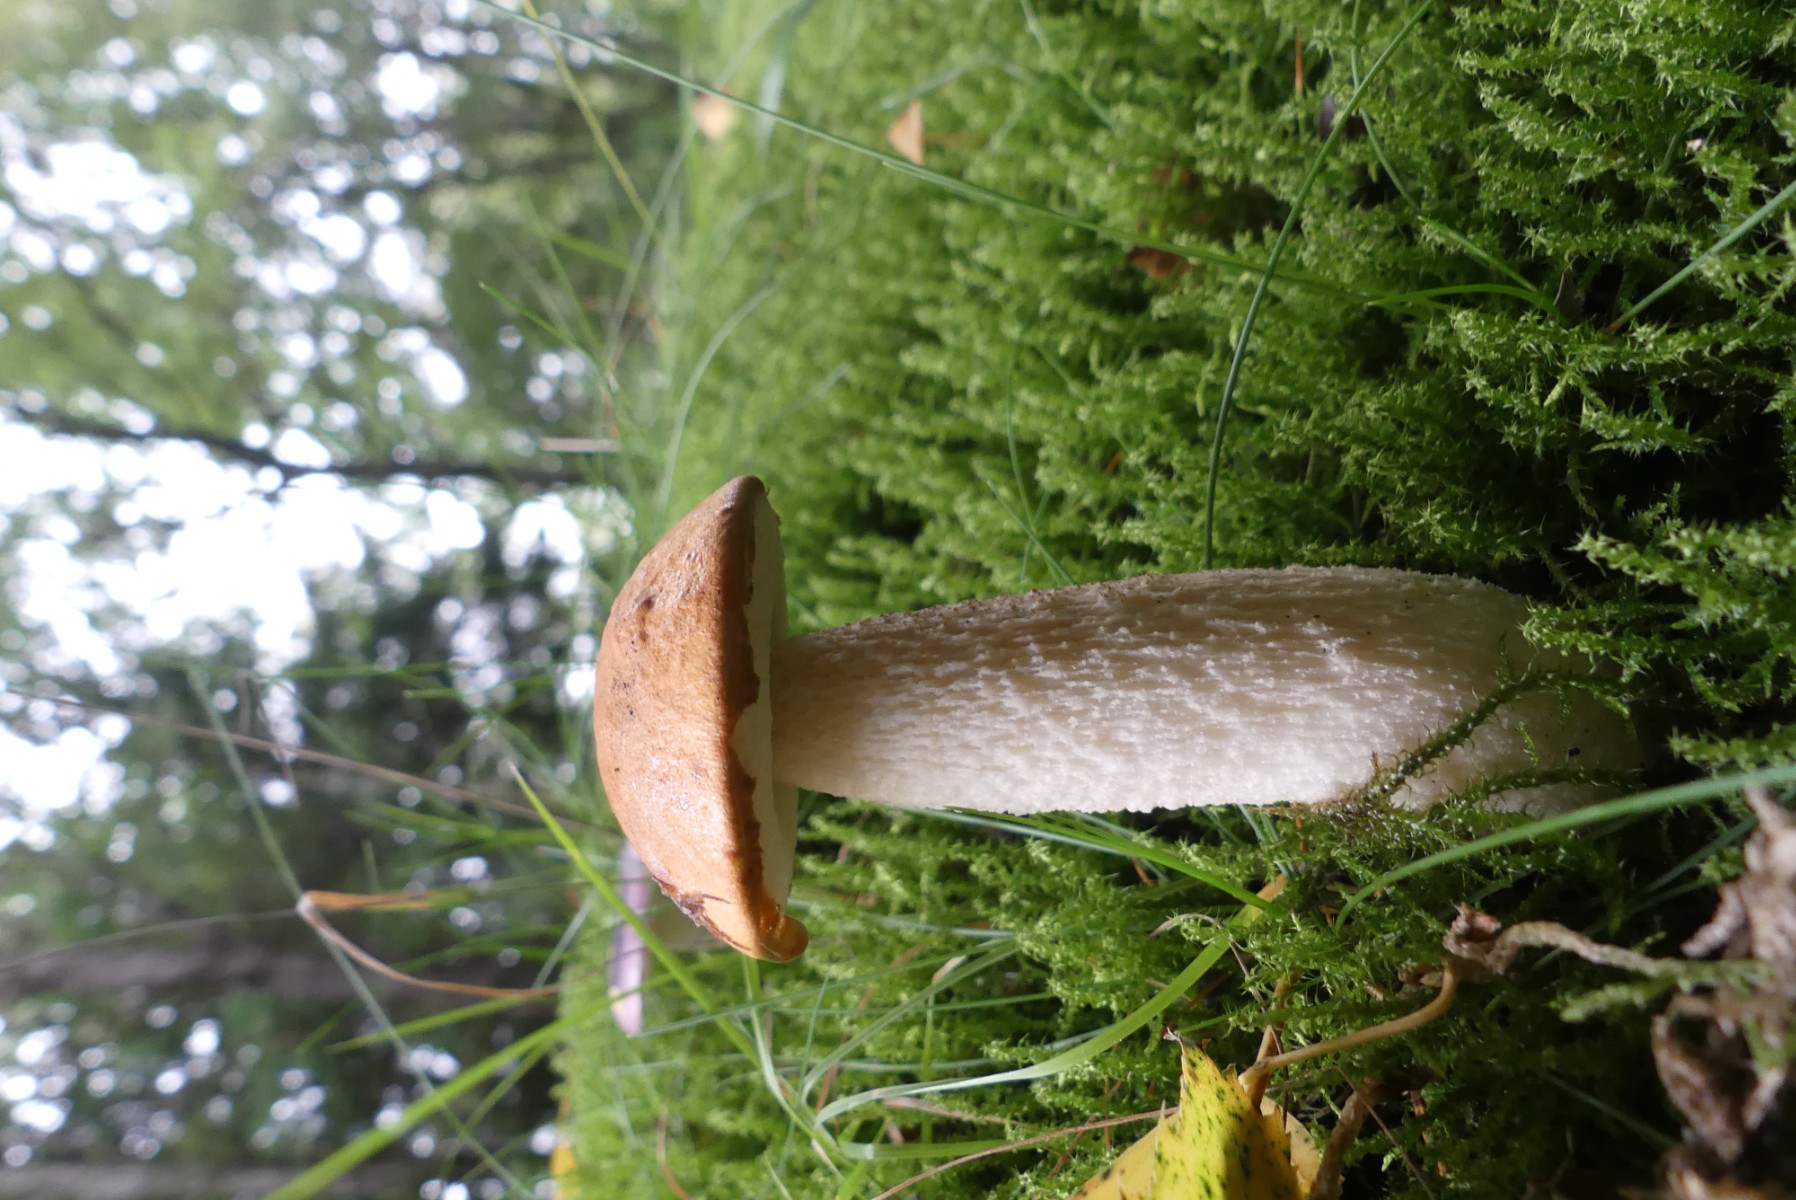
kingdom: Fungi
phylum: Basidiomycota
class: Agaricomycetes
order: Boletales
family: Boletaceae
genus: Leccinum
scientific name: Leccinum albostipitatum
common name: aspe-skælrørhat
